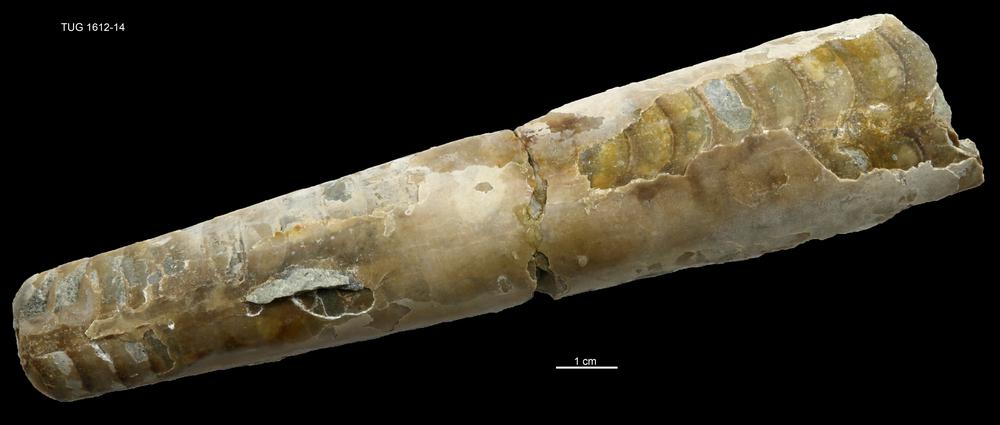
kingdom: Animalia
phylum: Mollusca
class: Cephalopoda
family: Endoceratidae
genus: Proterovaginoceras
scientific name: Proterovaginoceras Endoceras incognitum
